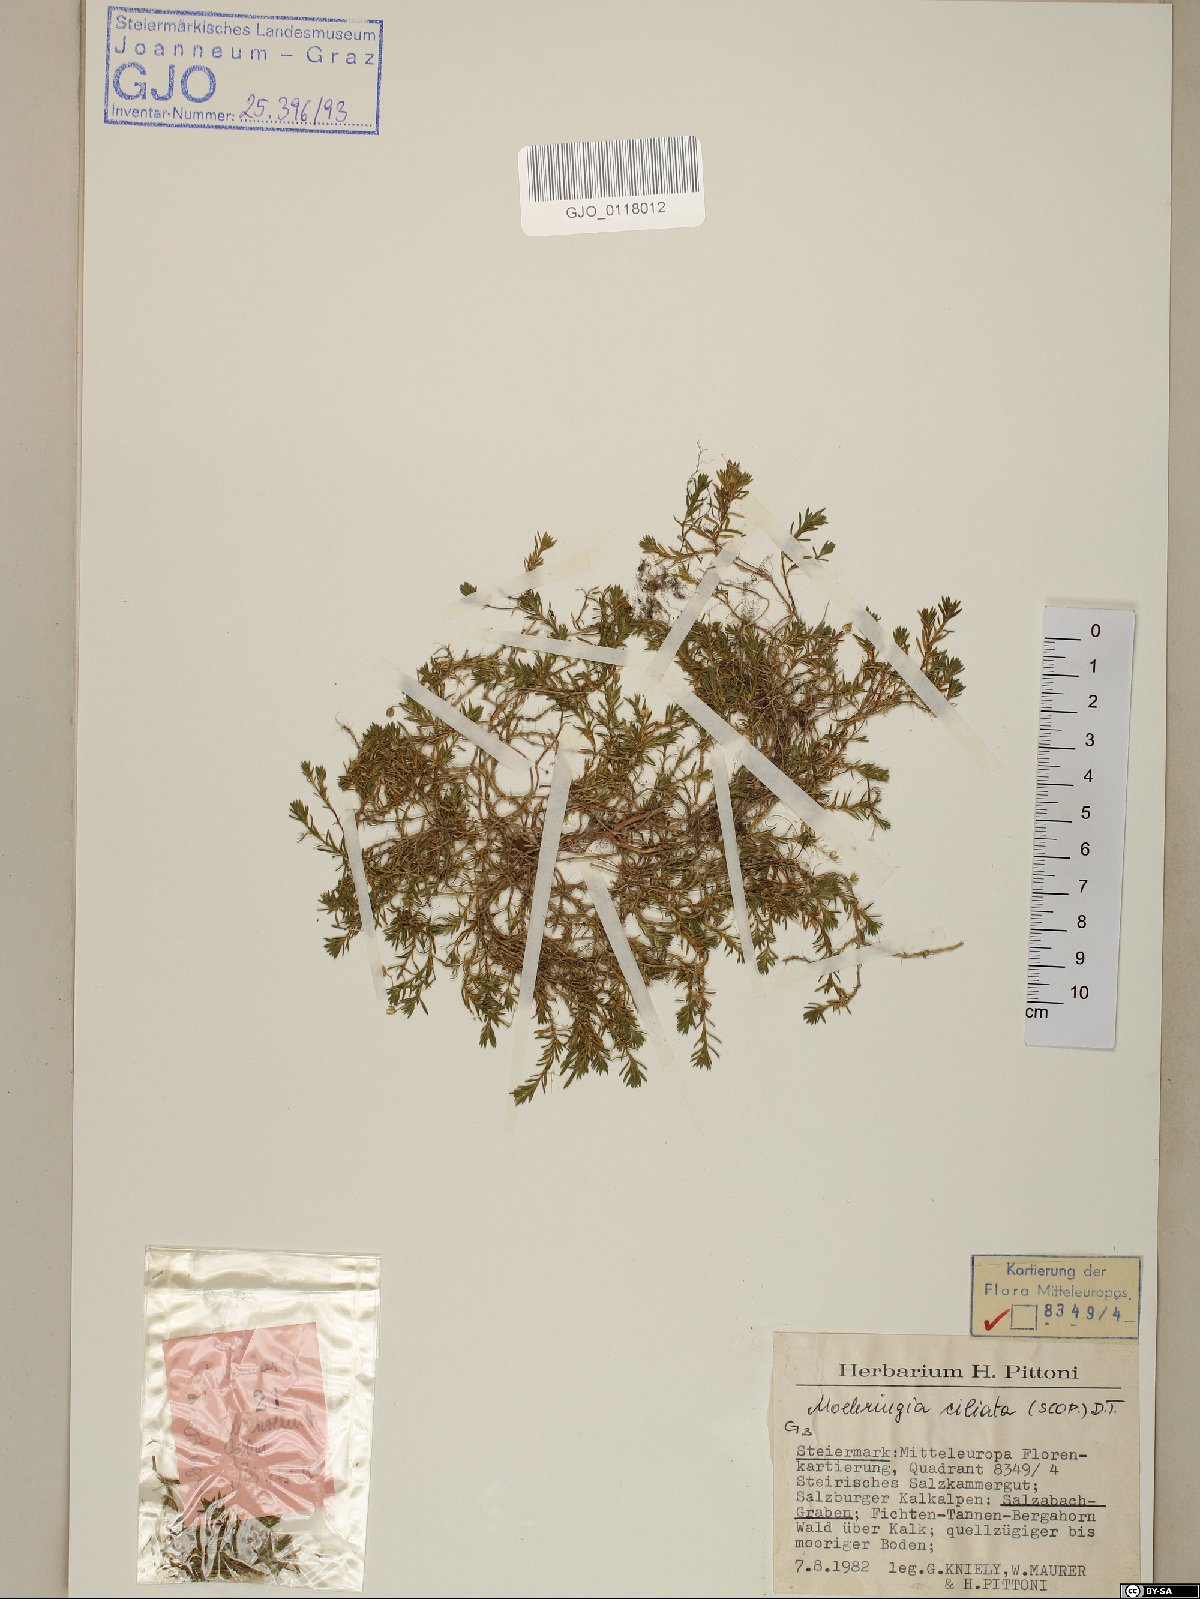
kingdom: Plantae
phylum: Tracheophyta
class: Magnoliopsida
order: Caryophyllales
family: Caryophyllaceae
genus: Moehringia
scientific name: Moehringia ciliata
